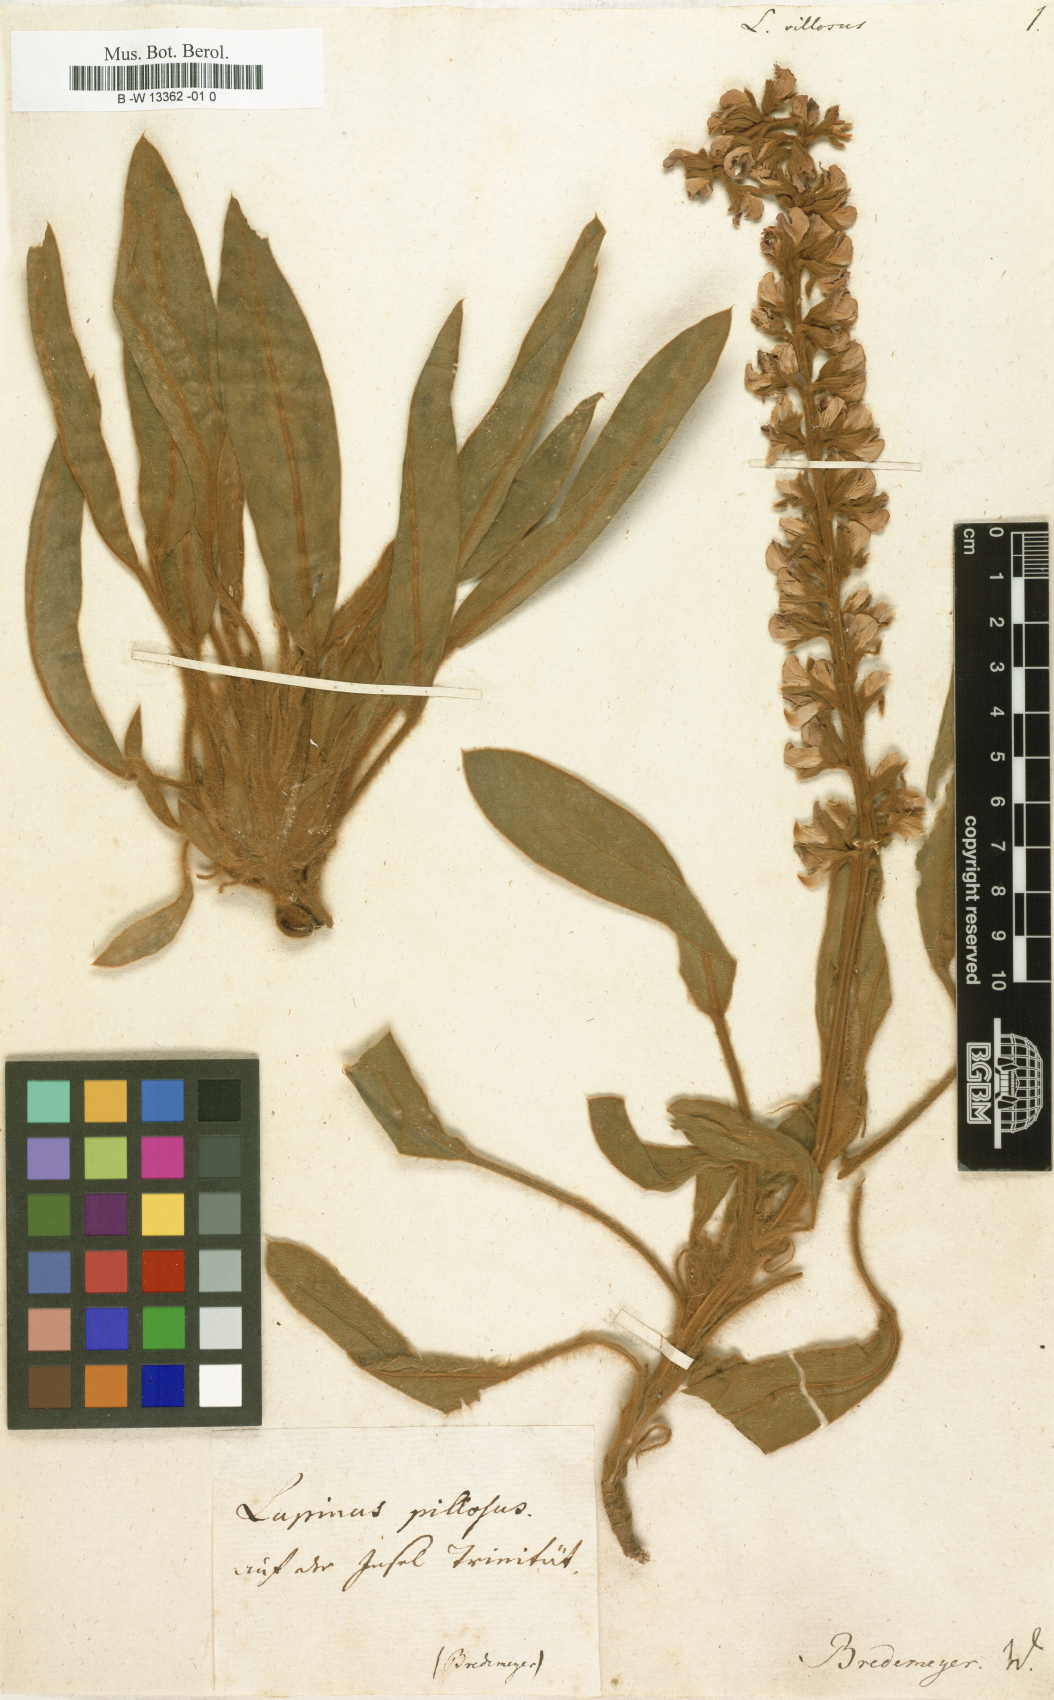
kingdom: Plantae
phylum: Tracheophyta
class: Magnoliopsida
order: Fabales
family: Fabaceae
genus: Lupinus
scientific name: Lupinus villosus
